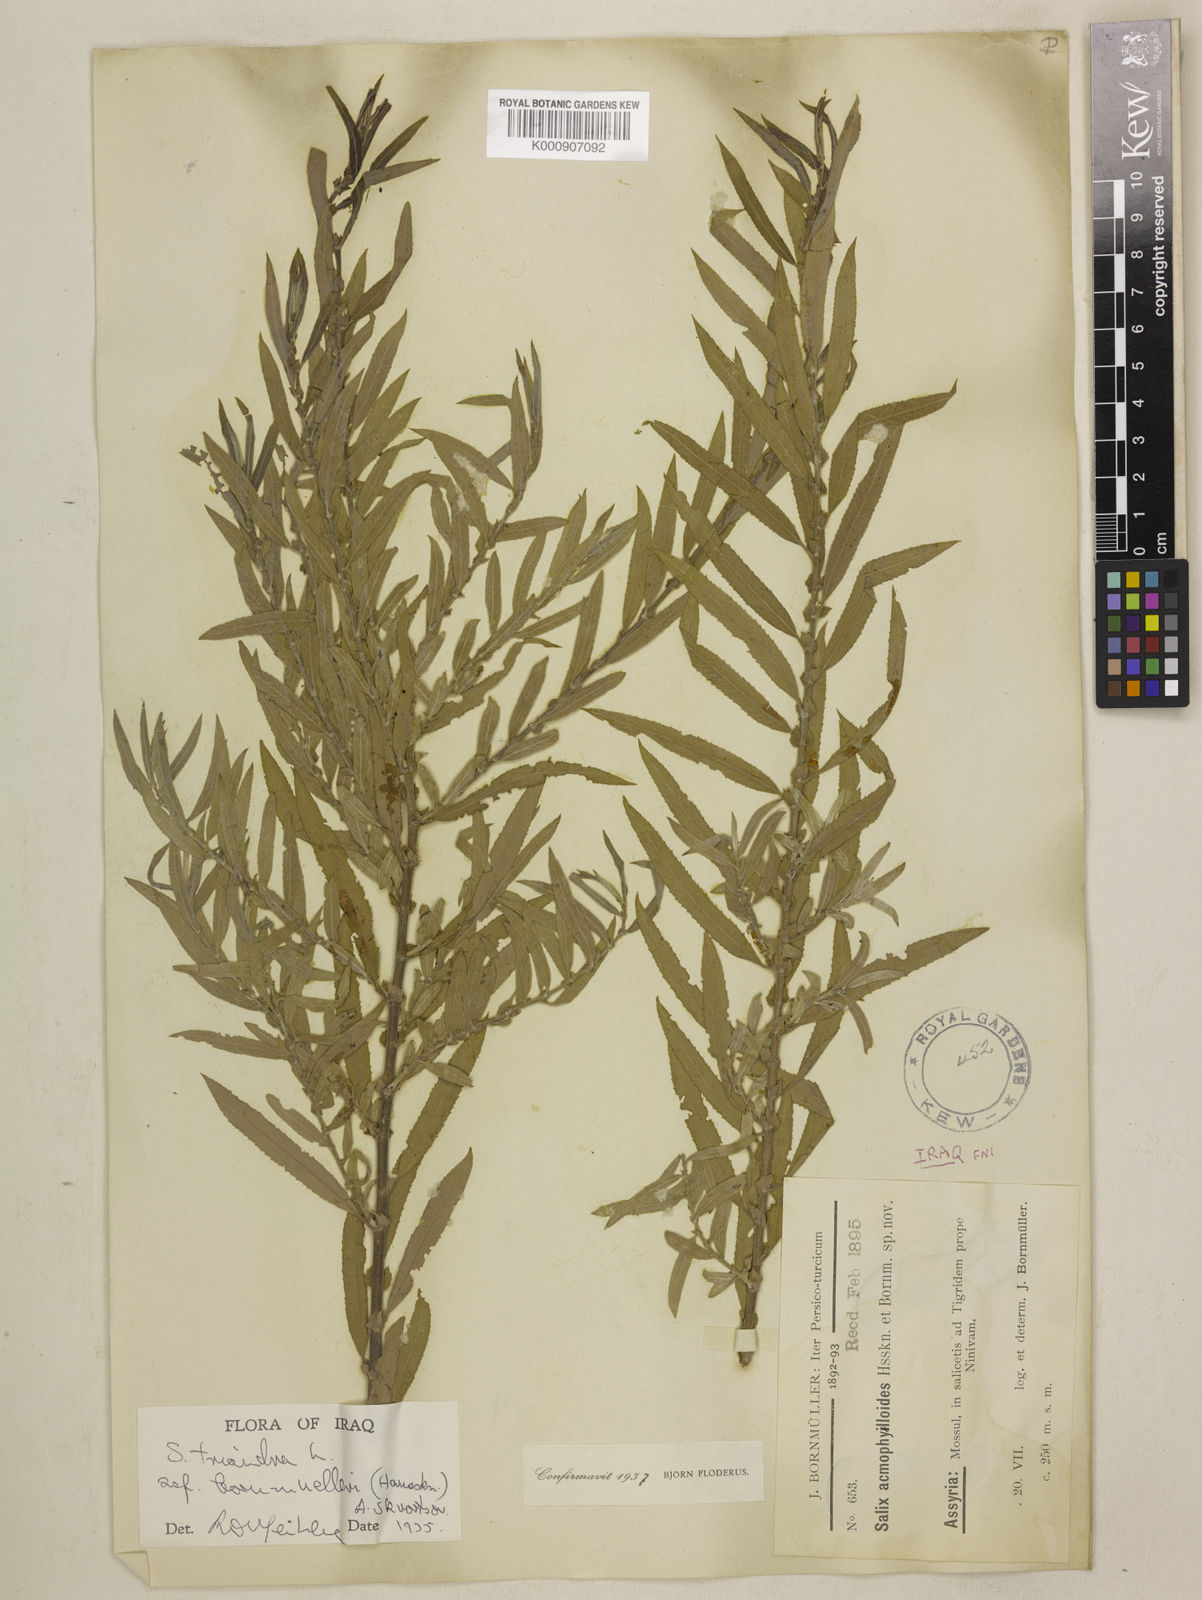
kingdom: Plantae
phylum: Tracheophyta
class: Magnoliopsida
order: Malpighiales
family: Salicaceae
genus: Salix
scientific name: Salix triandra
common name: Almond willow
